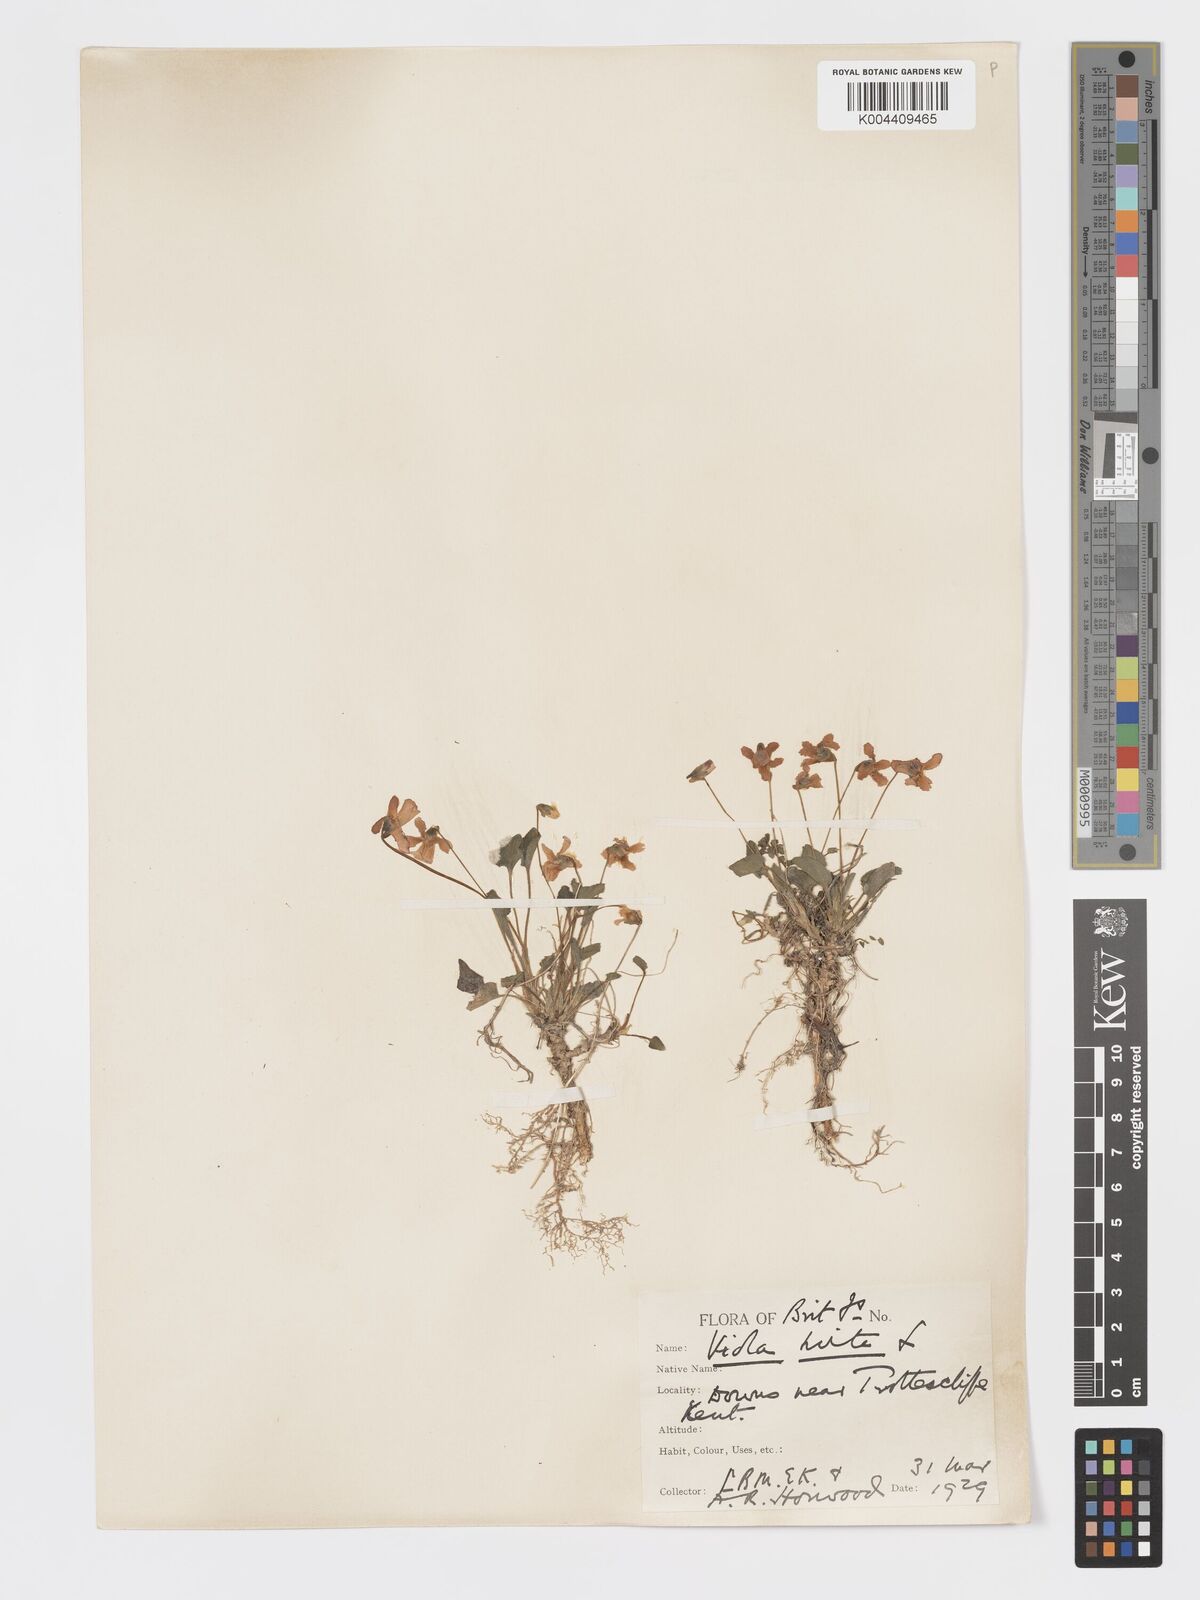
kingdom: Plantae
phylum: Tracheophyta
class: Magnoliopsida
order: Malpighiales
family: Violaceae
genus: Viola
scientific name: Viola
